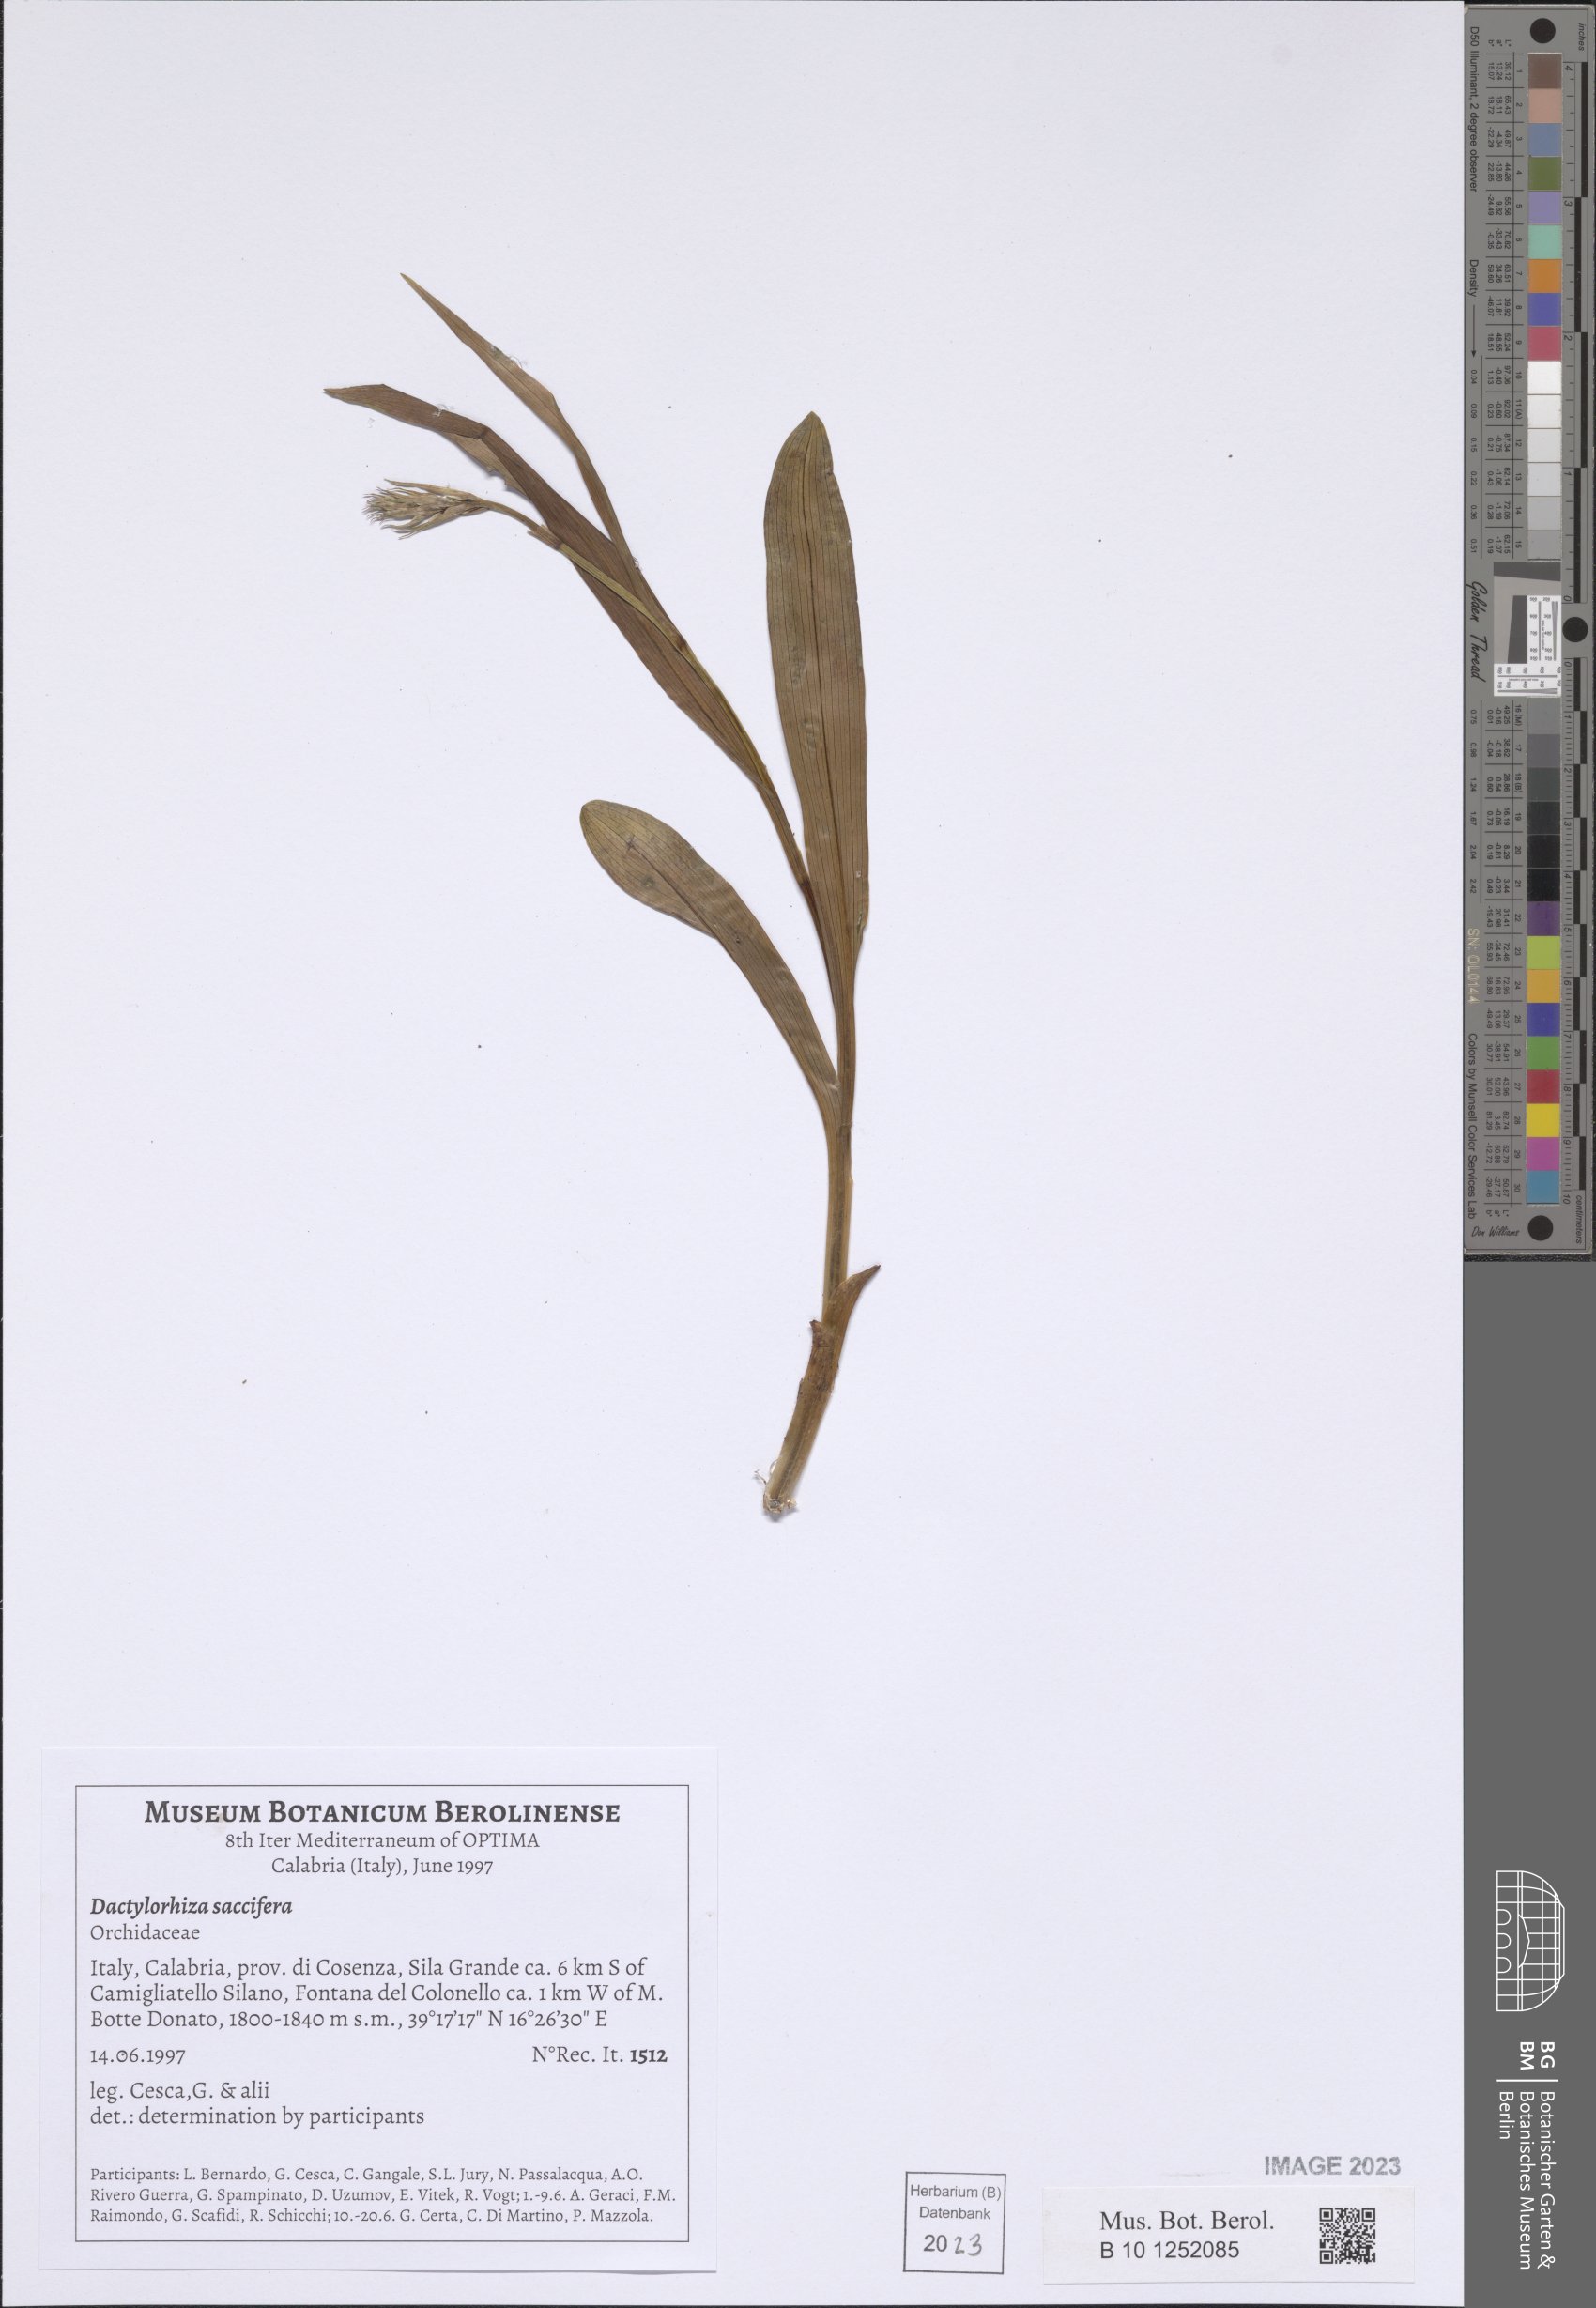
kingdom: Plantae
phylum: Tracheophyta
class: Liliopsida
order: Asparagales
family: Orchidaceae
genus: Dactylorhiza
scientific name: Dactylorhiza maculata
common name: Heath spotted-orchid
